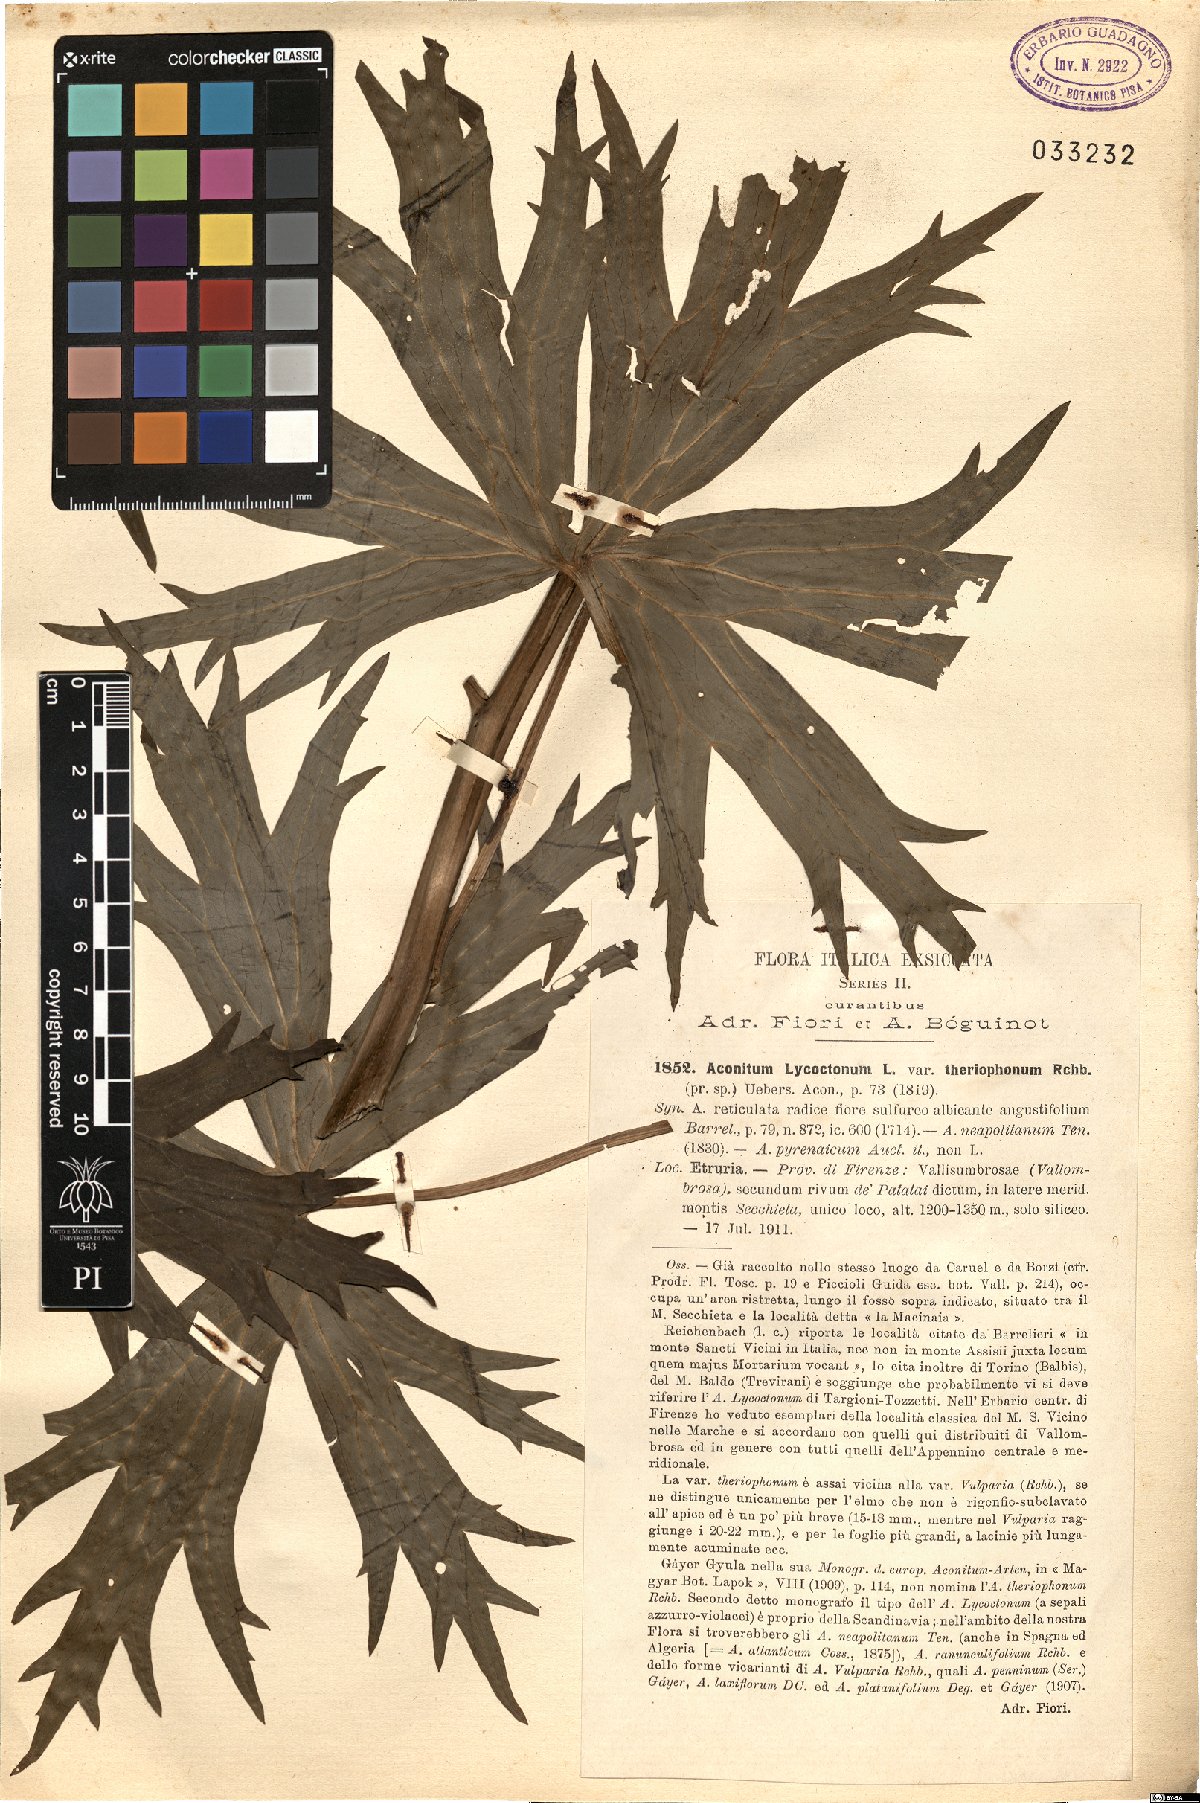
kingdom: Plantae
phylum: Tracheophyta
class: Magnoliopsida
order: Ranunculales
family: Ranunculaceae
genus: Aconitum
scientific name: Aconitum lycoctonum
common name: Wolf's-bane
